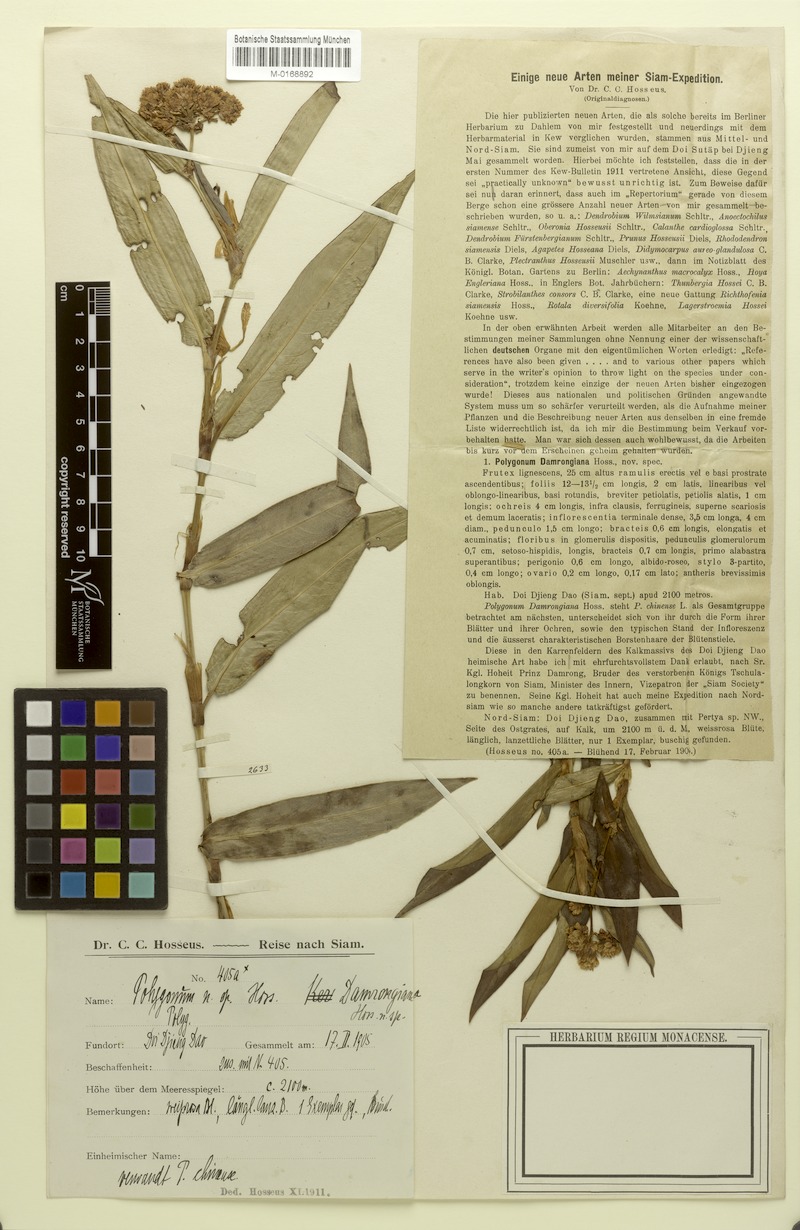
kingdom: Plantae
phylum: Tracheophyta
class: Magnoliopsida
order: Caryophyllales
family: Polygonaceae
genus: Persicaria
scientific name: Persicaria paradoxa
